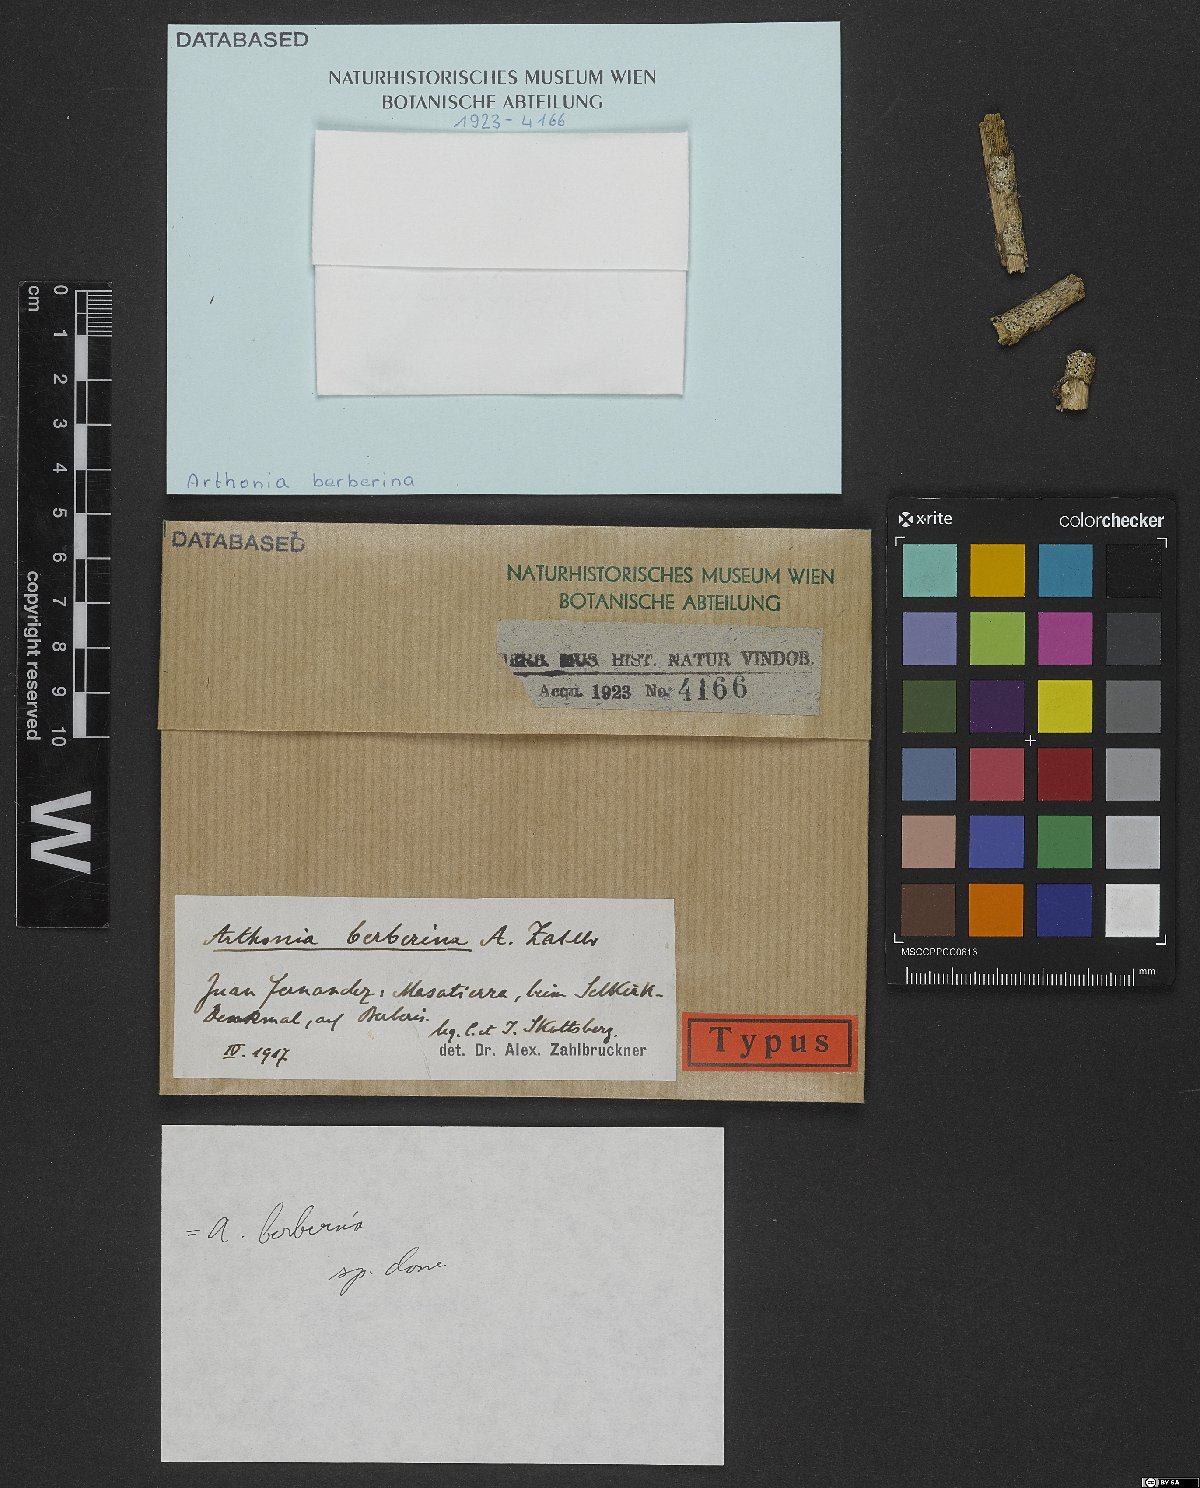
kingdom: Fungi
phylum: Ascomycota
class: Arthoniomycetes
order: Arthoniales
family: Arthoniaceae
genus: Arthonia
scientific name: Arthonia
